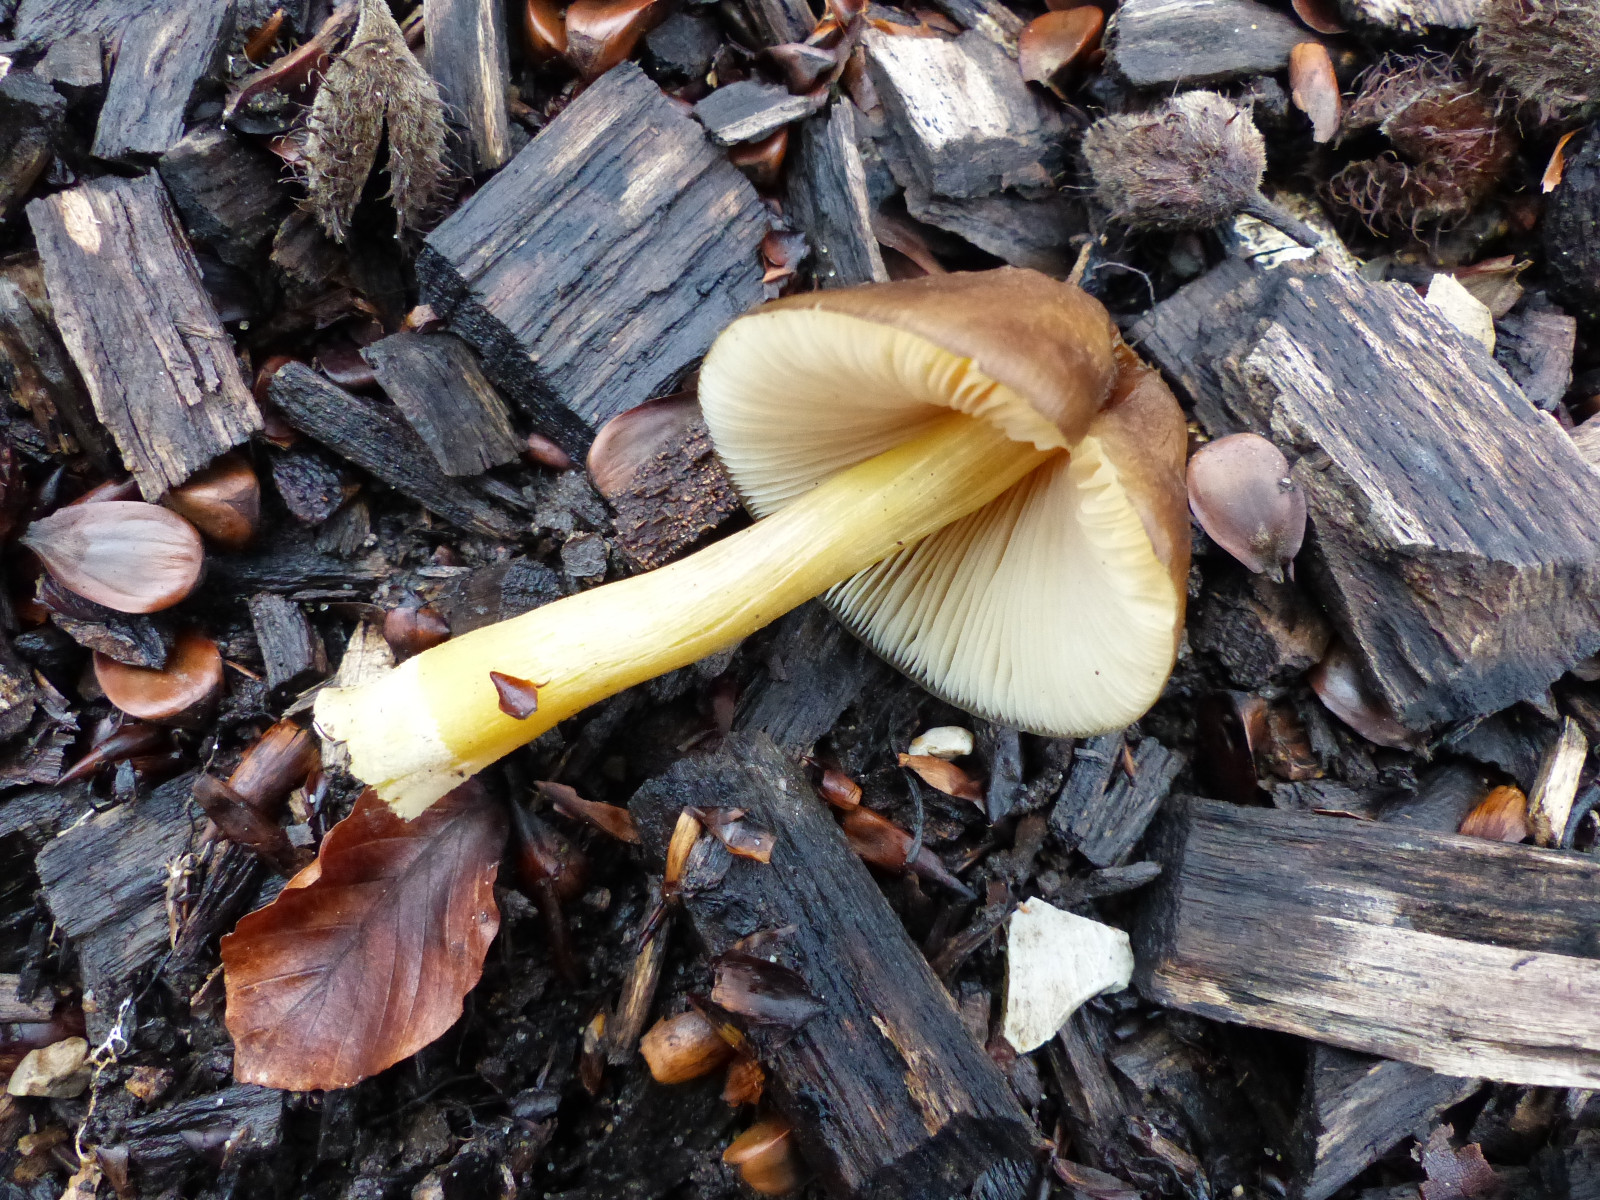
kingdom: Fungi
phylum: Basidiomycota
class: Agaricomycetes
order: Agaricales
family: Pluteaceae
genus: Pluteus
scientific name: Pluteus romellii
